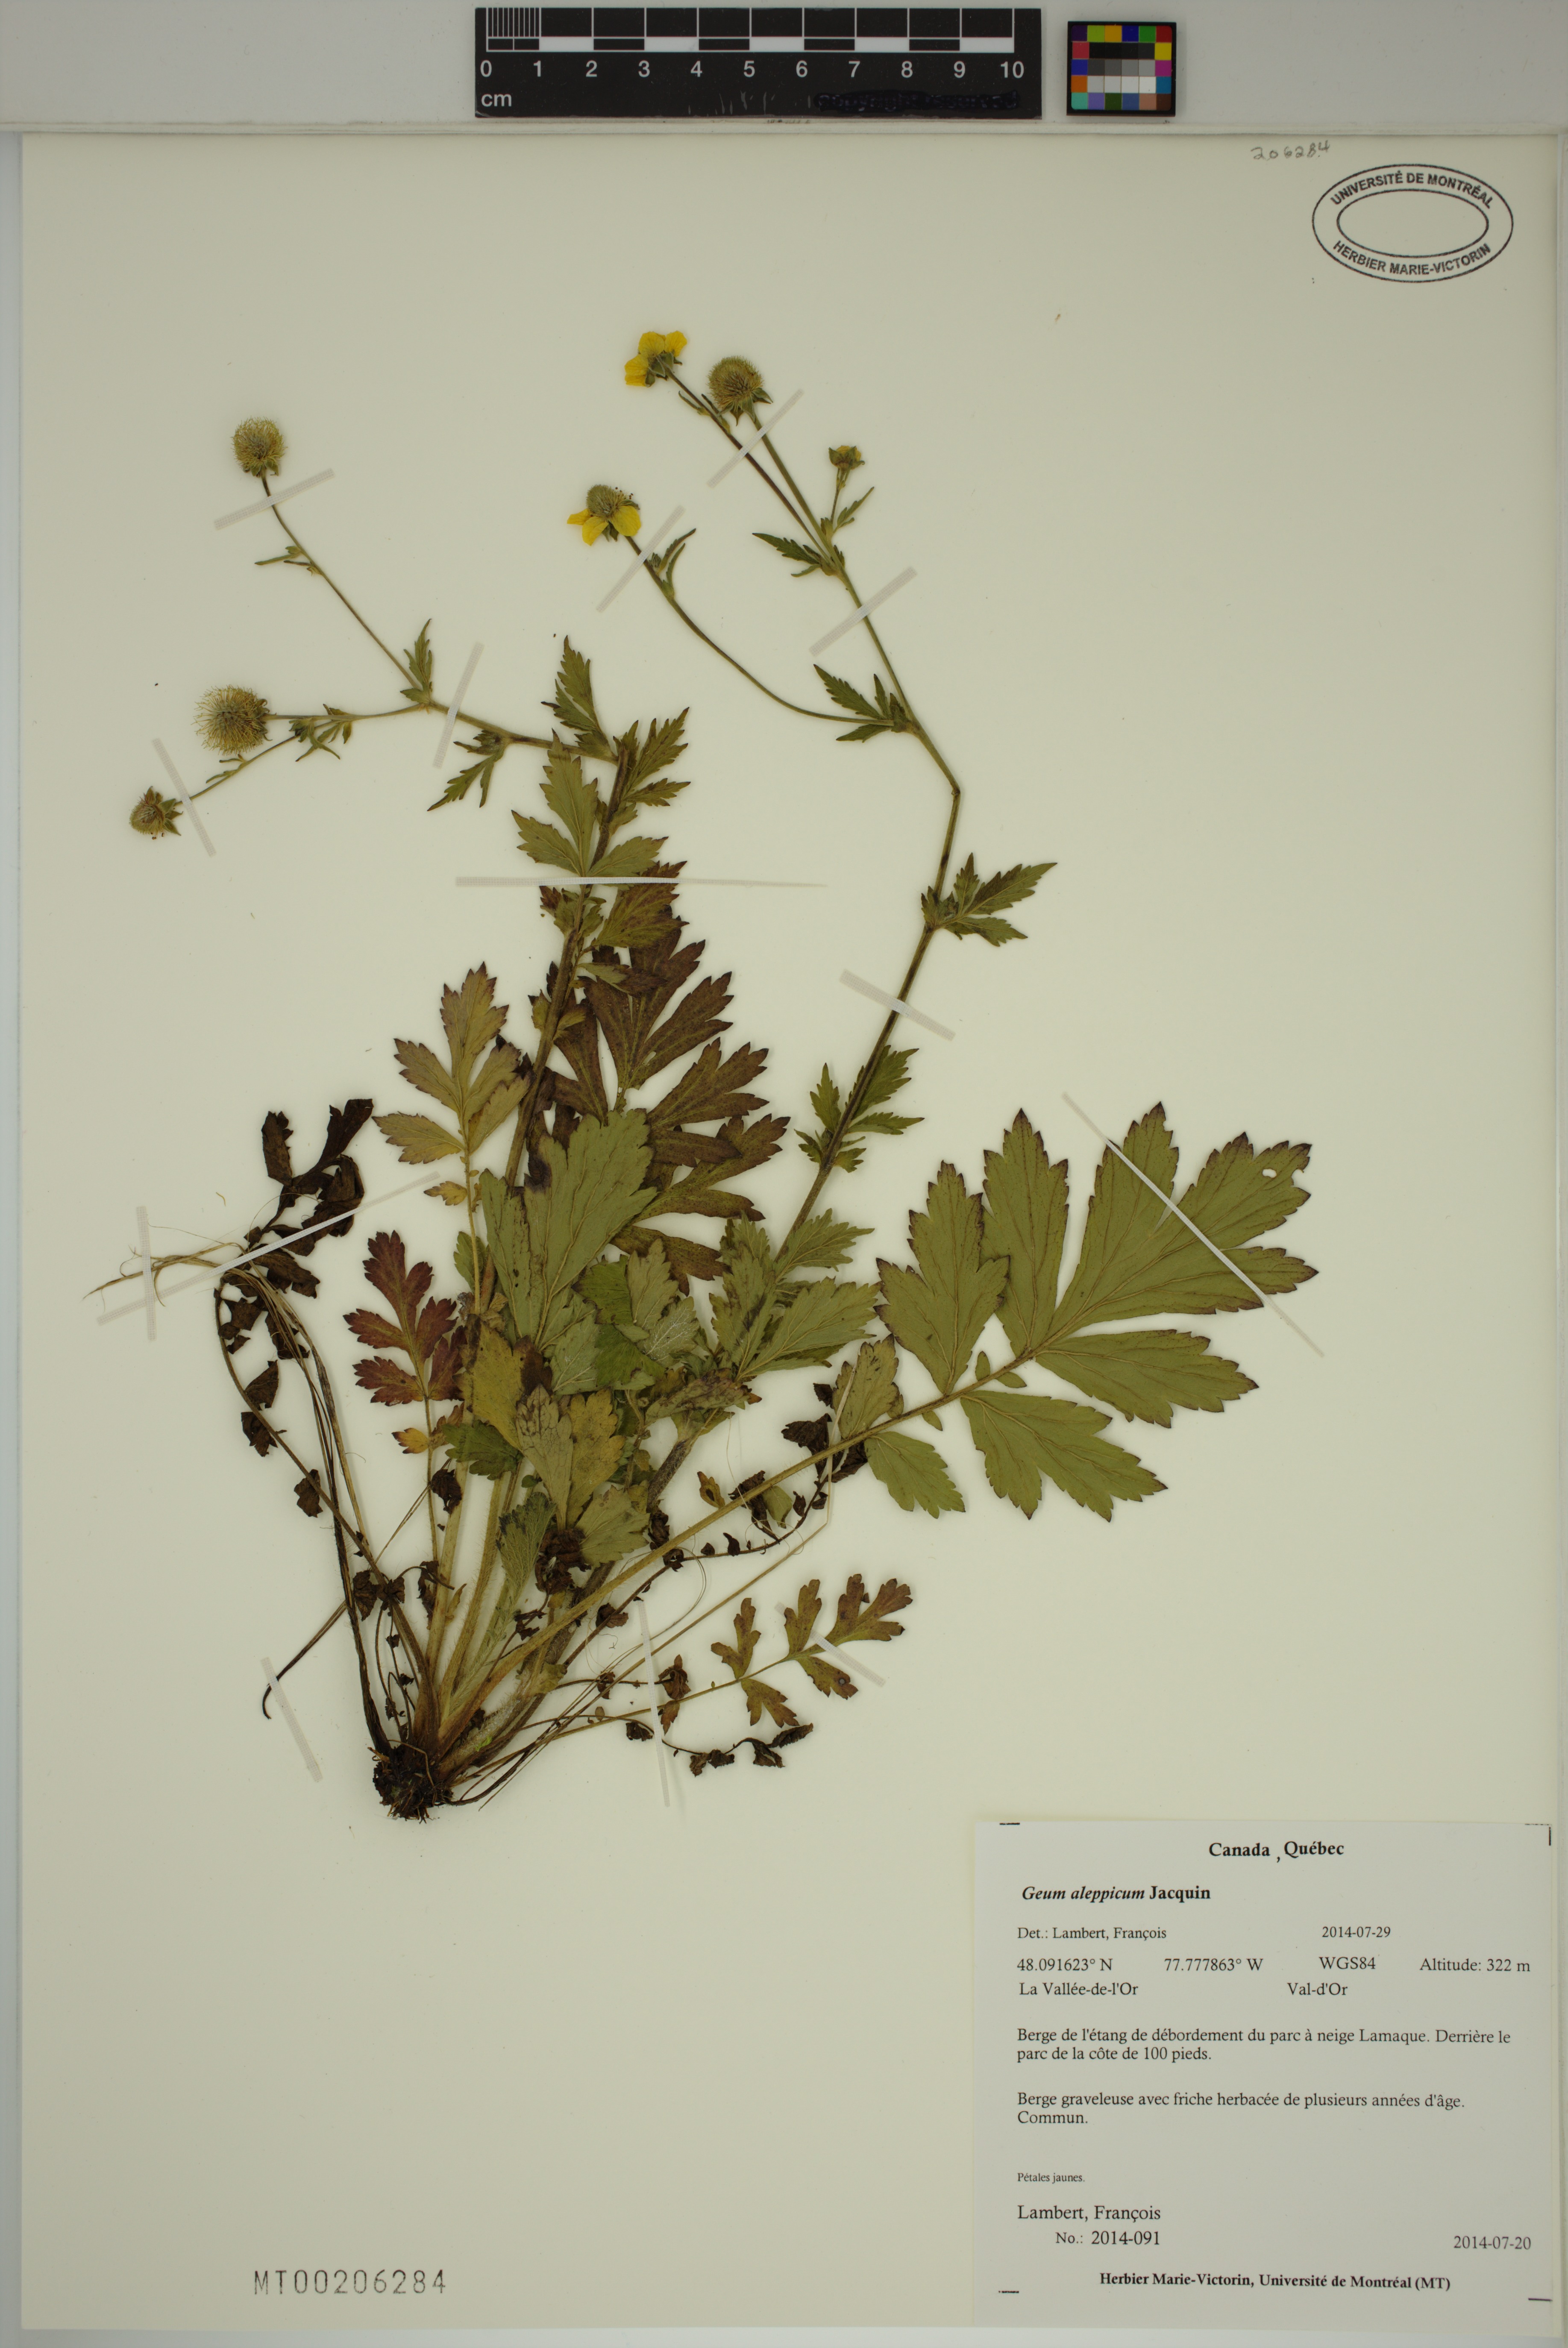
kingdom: Plantae
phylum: Tracheophyta
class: Magnoliopsida
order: Rosales
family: Rosaceae
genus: Geum
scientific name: Geum aleppicum
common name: Yellow avens
